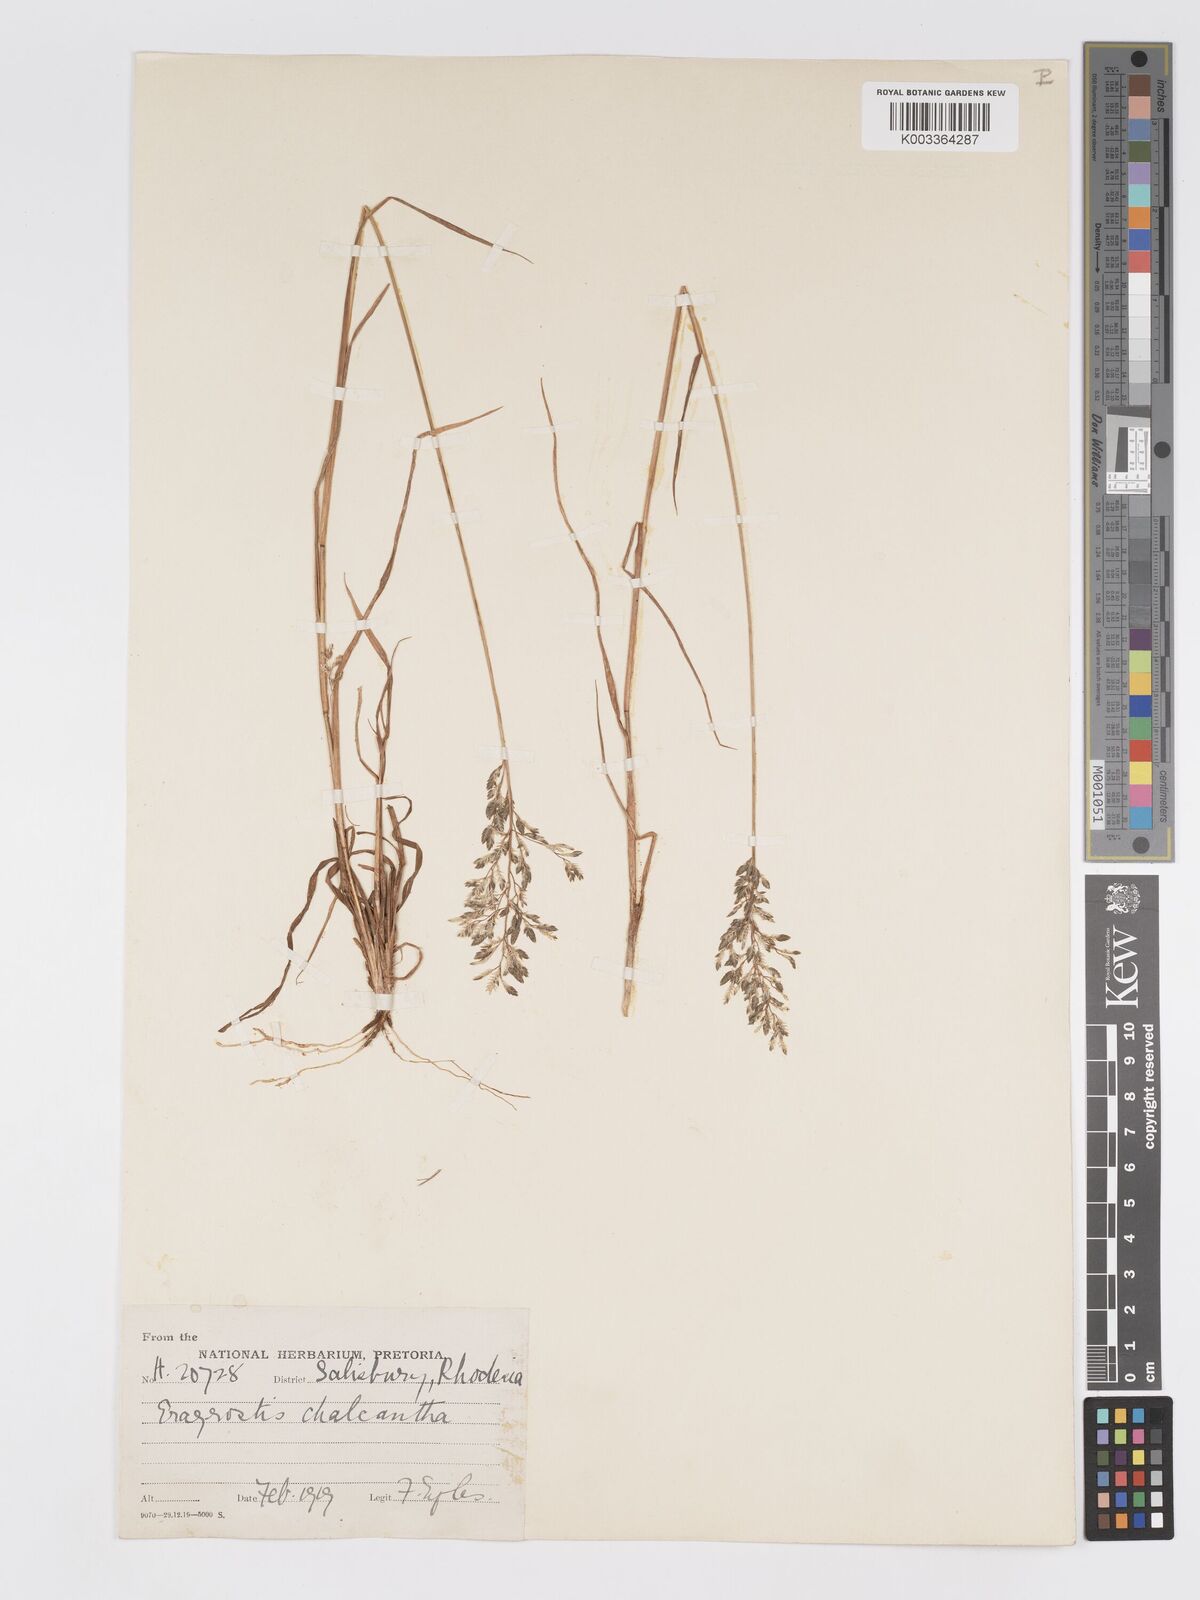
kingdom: Plantae
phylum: Tracheophyta
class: Liliopsida
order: Poales
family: Poaceae
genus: Eragrostis
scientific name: Eragrostis racemosa
